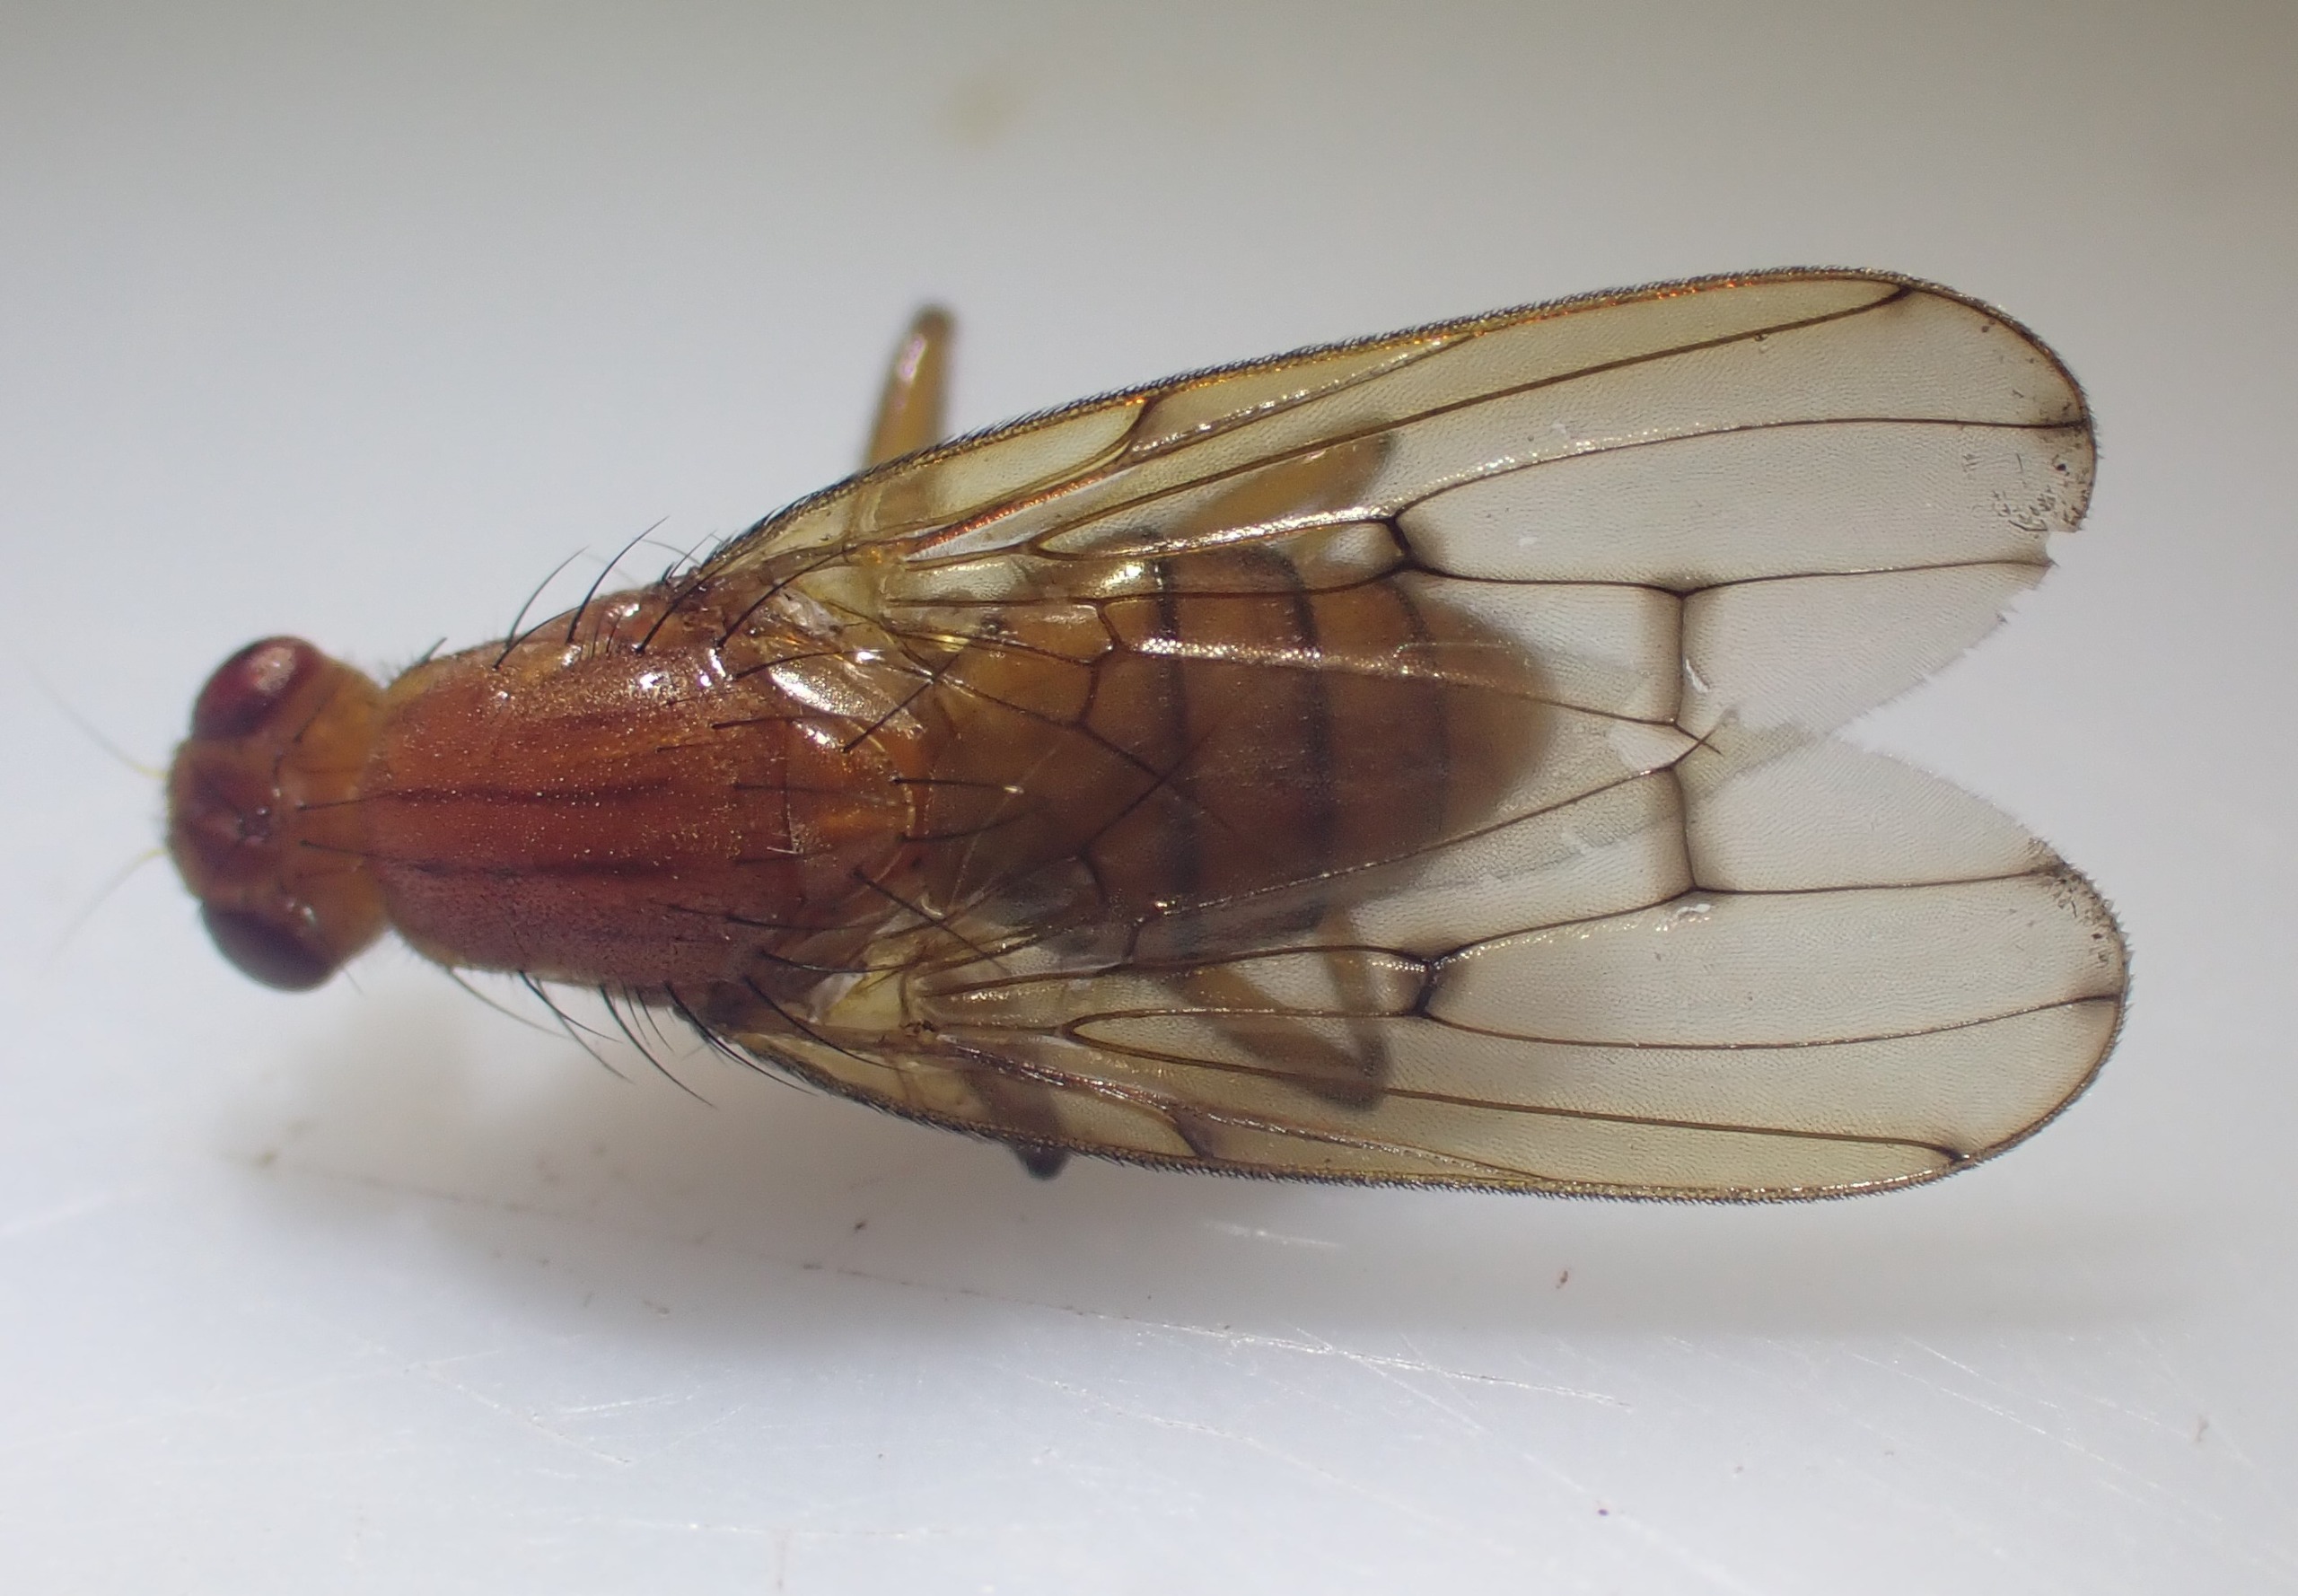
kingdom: Animalia
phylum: Arthropoda
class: Insecta
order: Diptera
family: Dryomyzidae
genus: Dryomyza
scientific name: Dryomyza anilis
